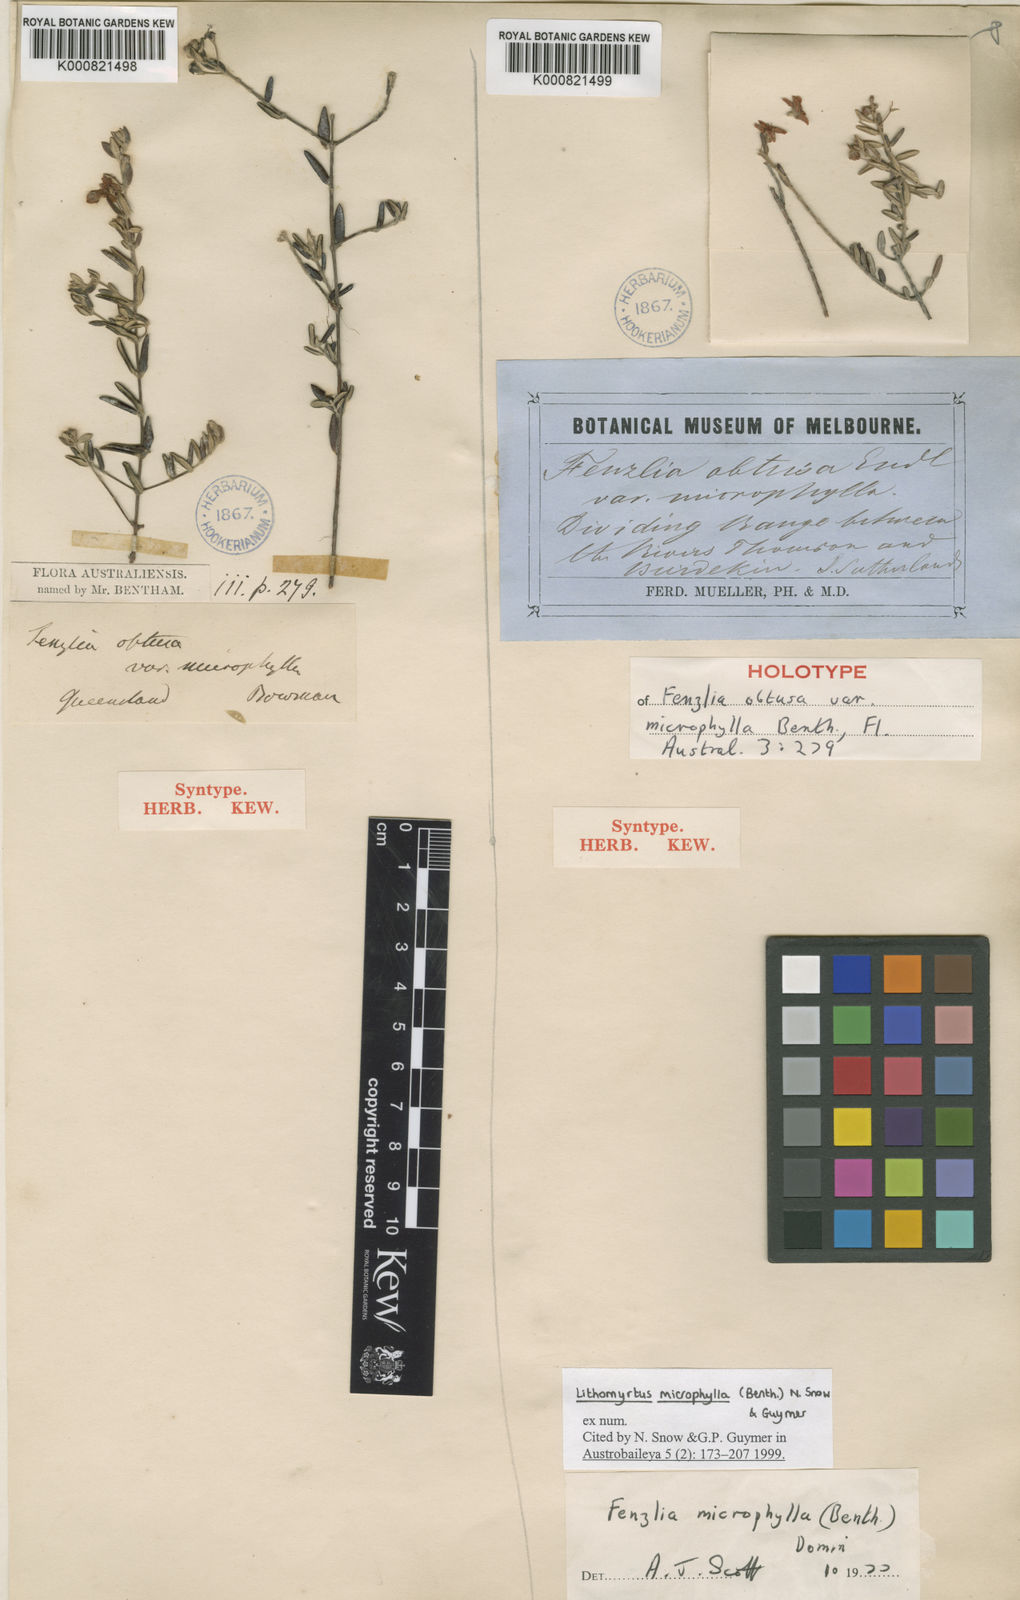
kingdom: Plantae
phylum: Tracheophyta
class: Magnoliopsida
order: Myrtales
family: Myrtaceae
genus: Lithomyrtus
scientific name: Lithomyrtus microphylla
